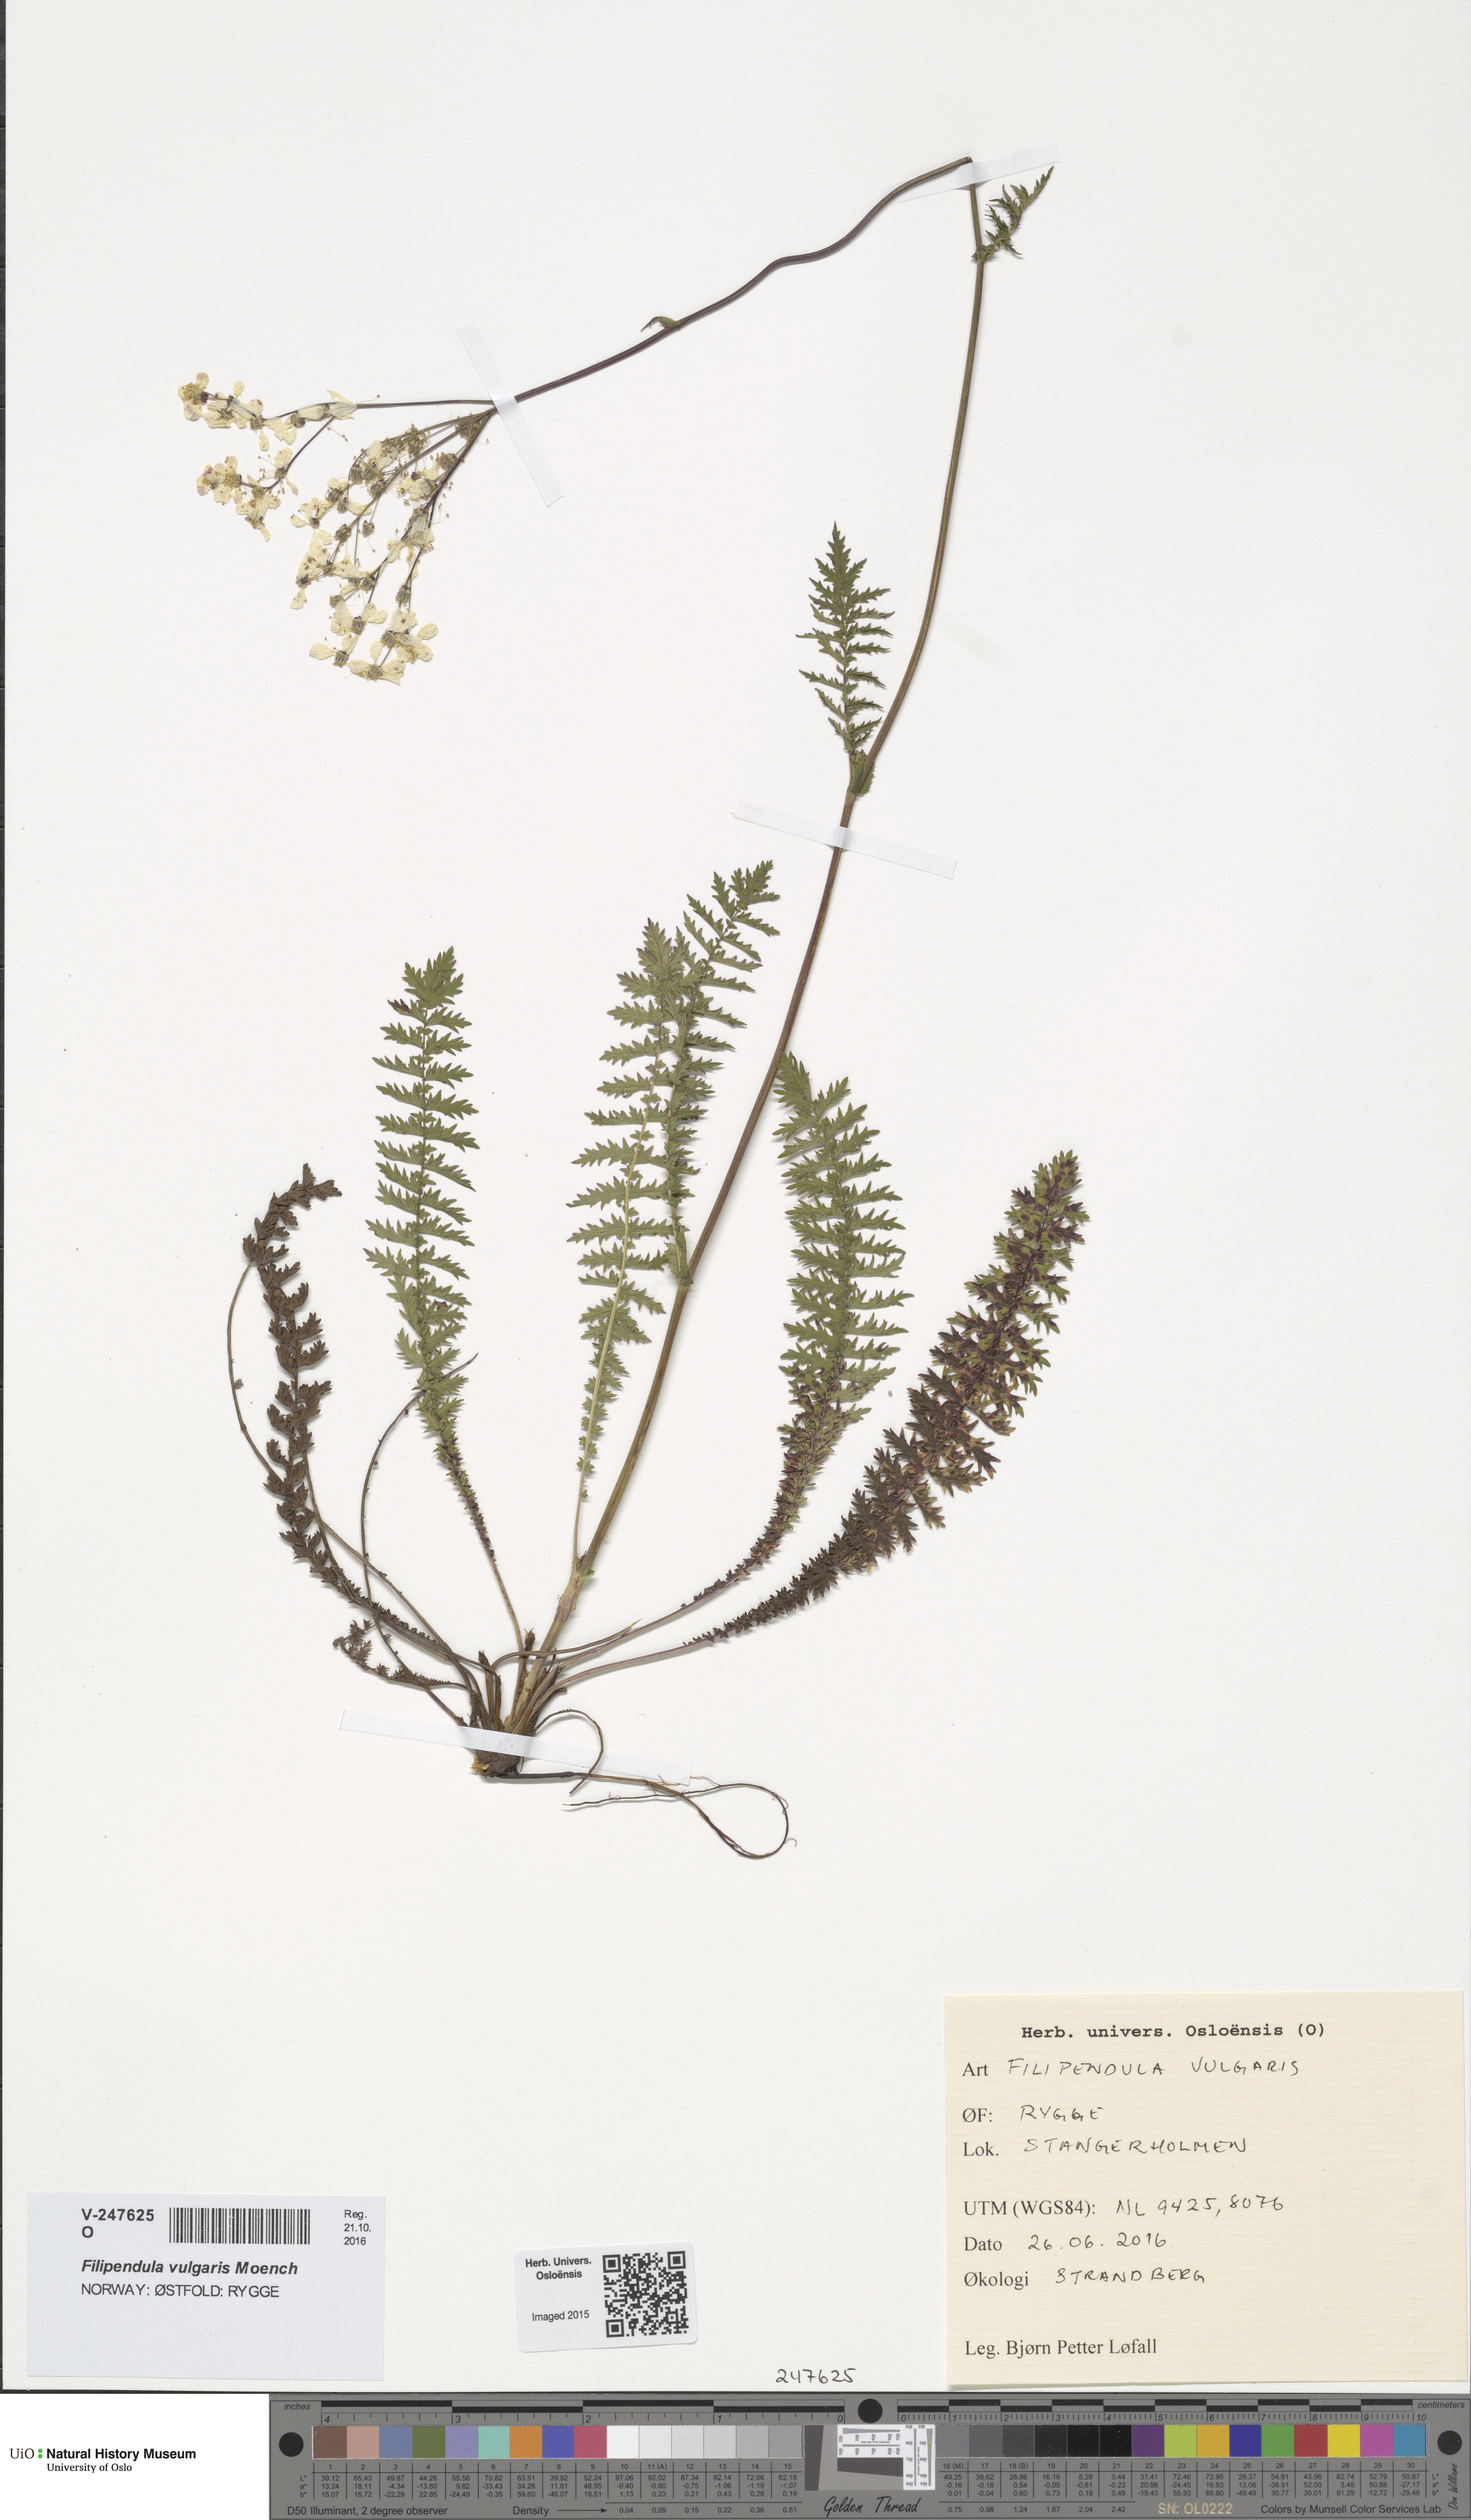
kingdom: Plantae
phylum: Tracheophyta
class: Magnoliopsida
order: Rosales
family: Rosaceae
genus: Filipendula
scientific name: Filipendula vulgaris
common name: Dropwort
